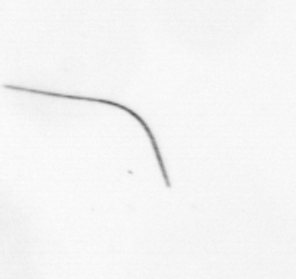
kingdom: Chromista
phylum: Ochrophyta
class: Bacillariophyceae
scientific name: Bacillariophyceae
